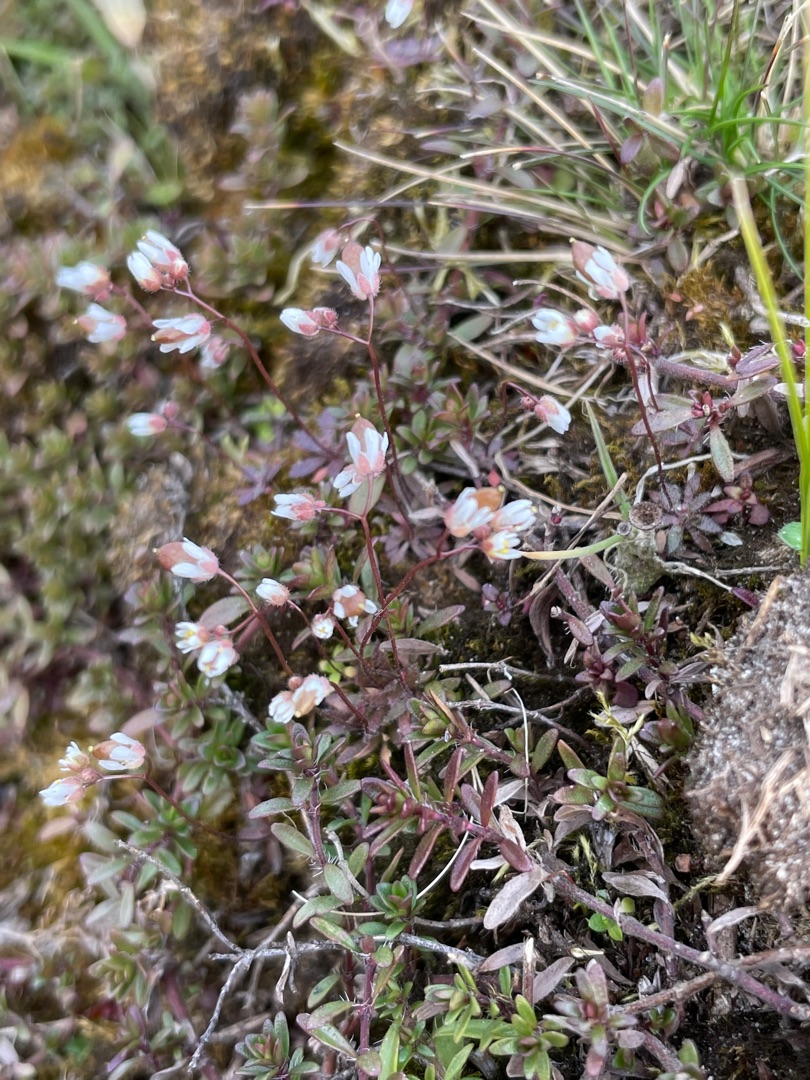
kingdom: Plantae
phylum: Tracheophyta
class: Magnoliopsida
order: Brassicales
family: Brassicaceae
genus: Draba
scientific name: Draba verna
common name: Vår-gæslingeblomst
